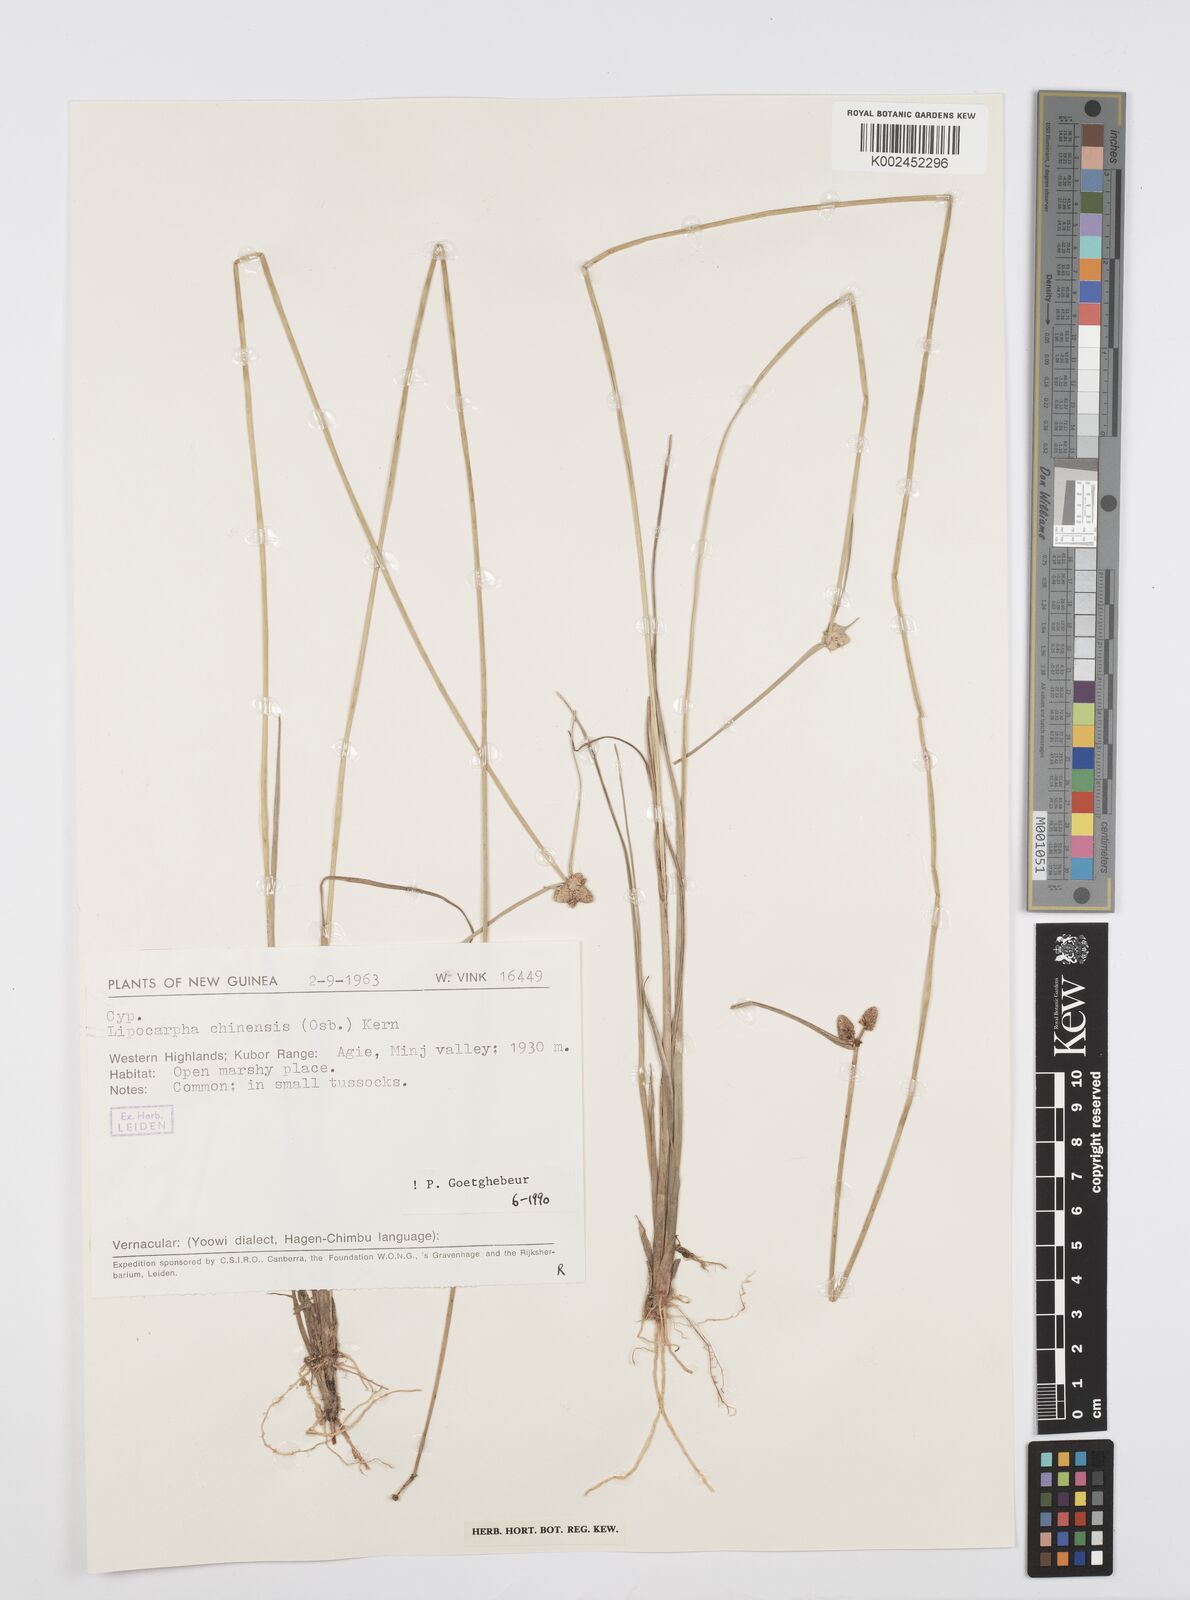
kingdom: Plantae
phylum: Tracheophyta
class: Liliopsida
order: Poales
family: Cyperaceae
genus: Cyperus
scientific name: Cyperus albescens
